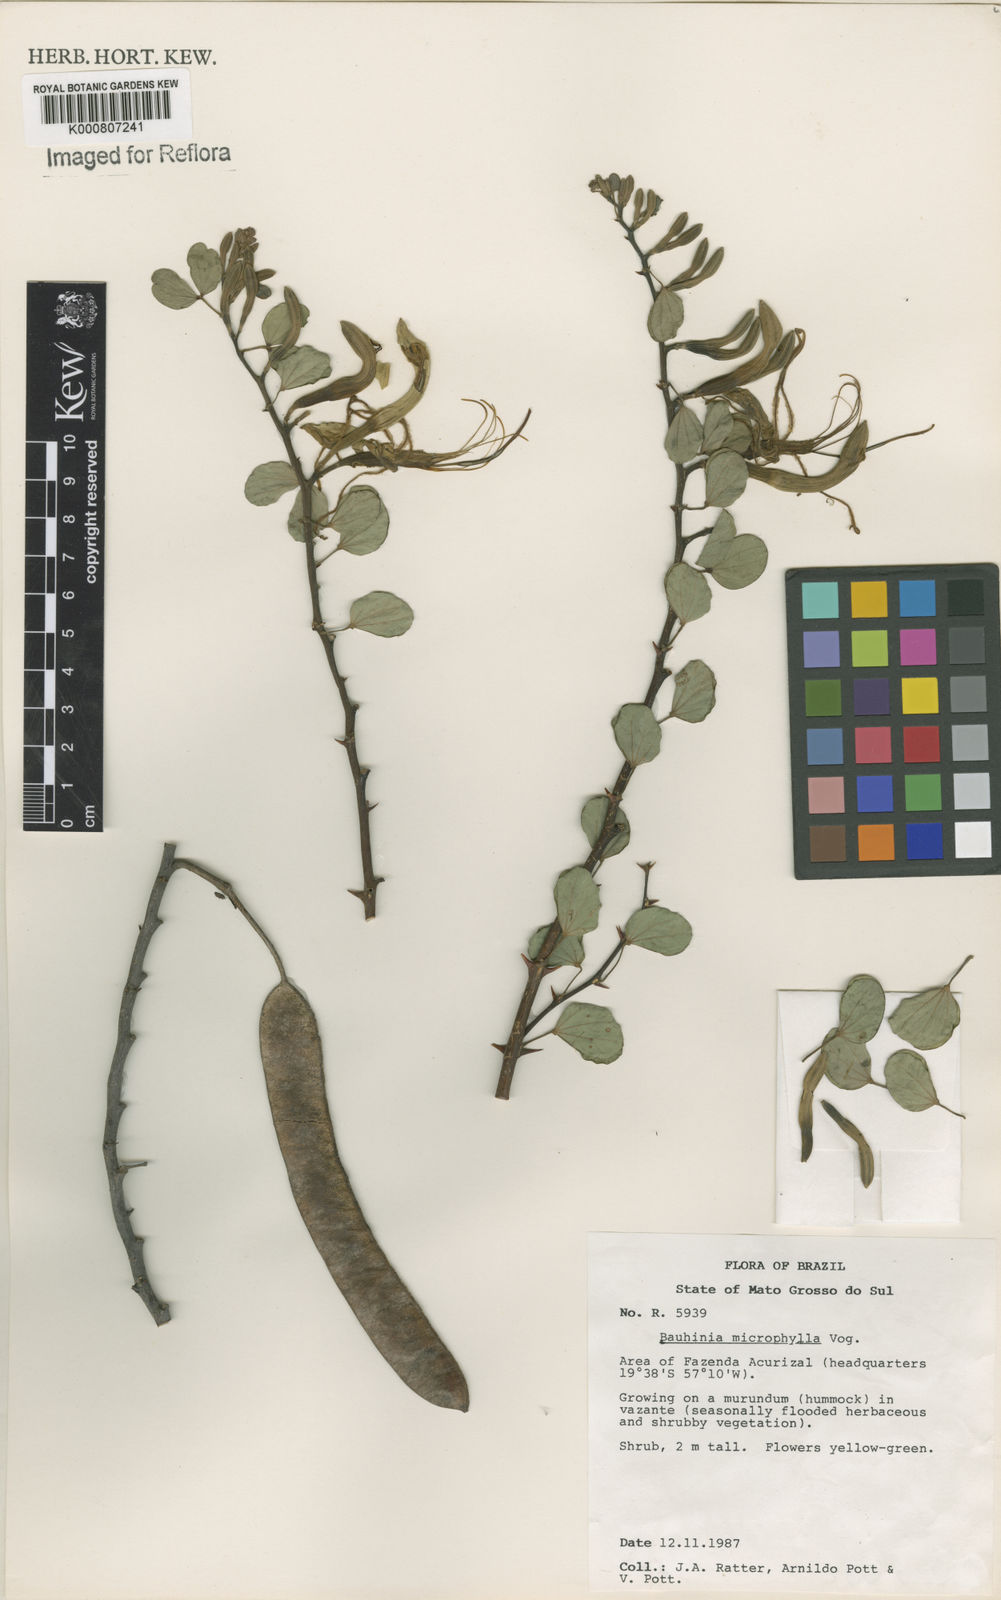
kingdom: Plantae
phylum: Tracheophyta
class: Magnoliopsida
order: Fabales
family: Fabaceae
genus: Bauhinia
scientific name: Bauhinia bauhinioides
